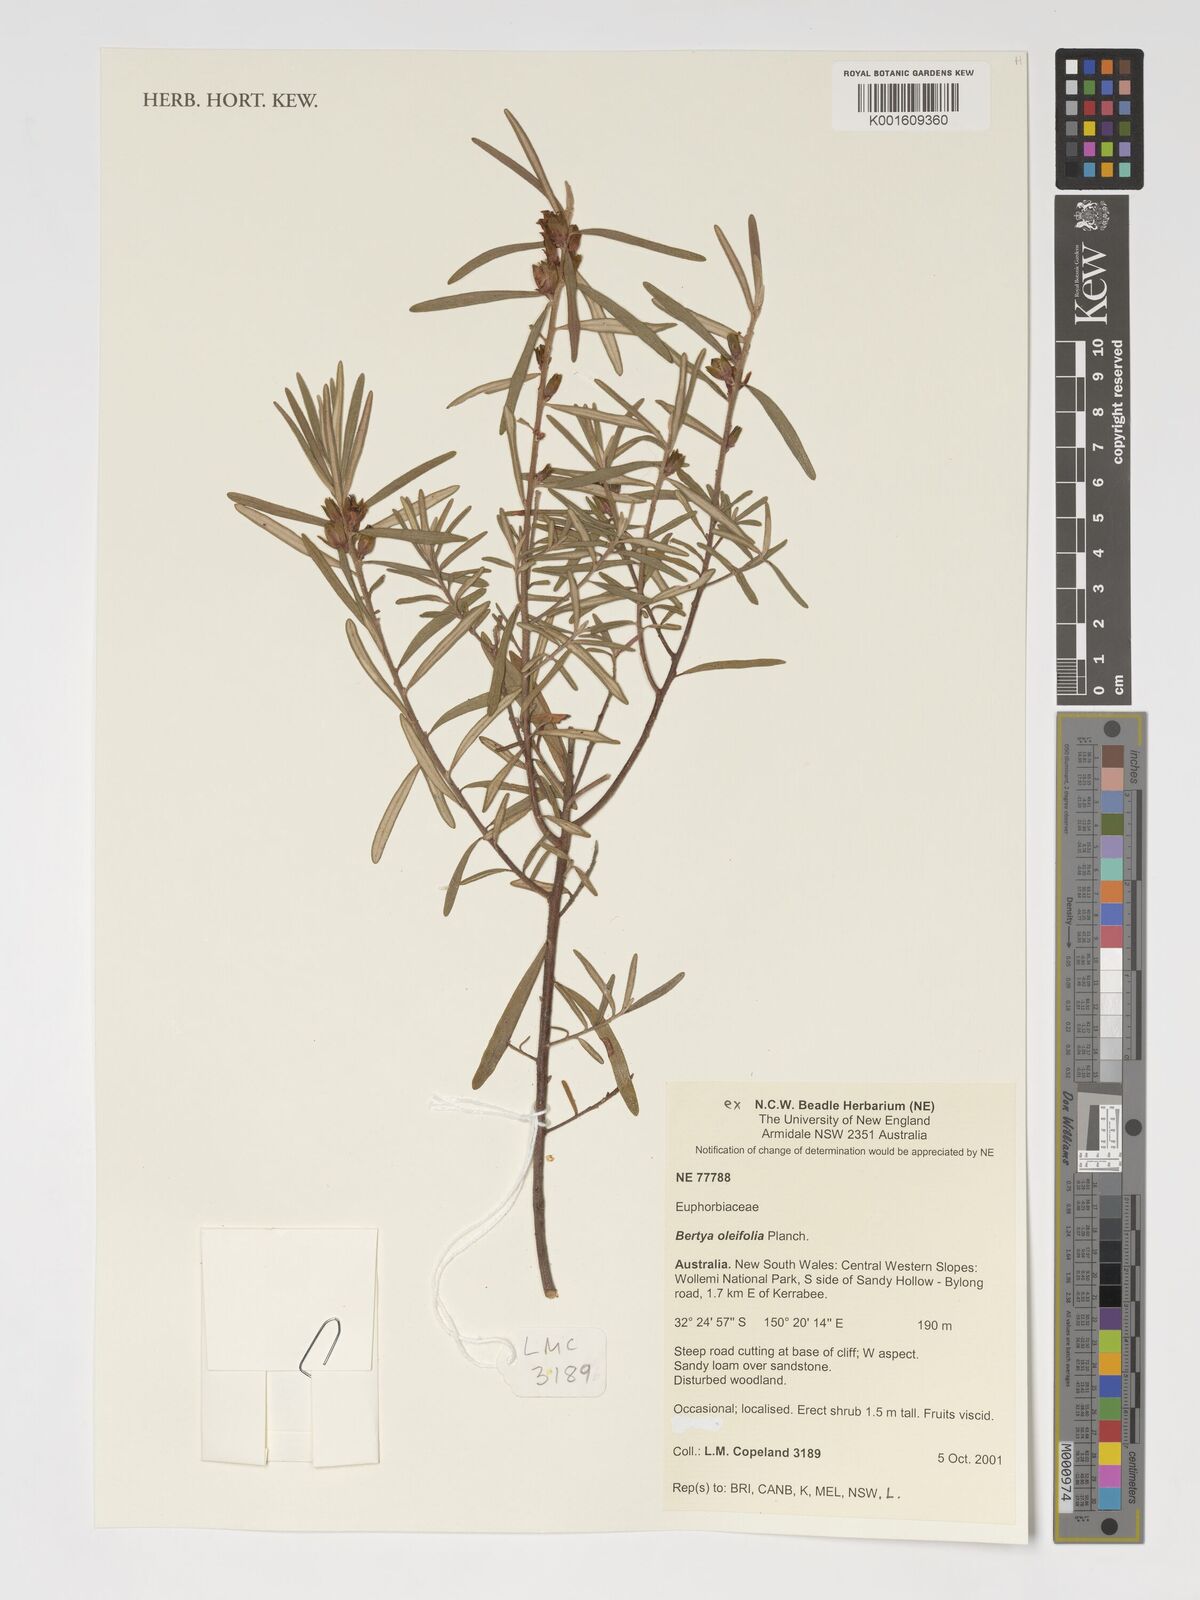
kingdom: Plantae
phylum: Tracheophyta
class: Magnoliopsida
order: Malpighiales
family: Euphorbiaceae
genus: Bertya
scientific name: Bertya oleifolia
